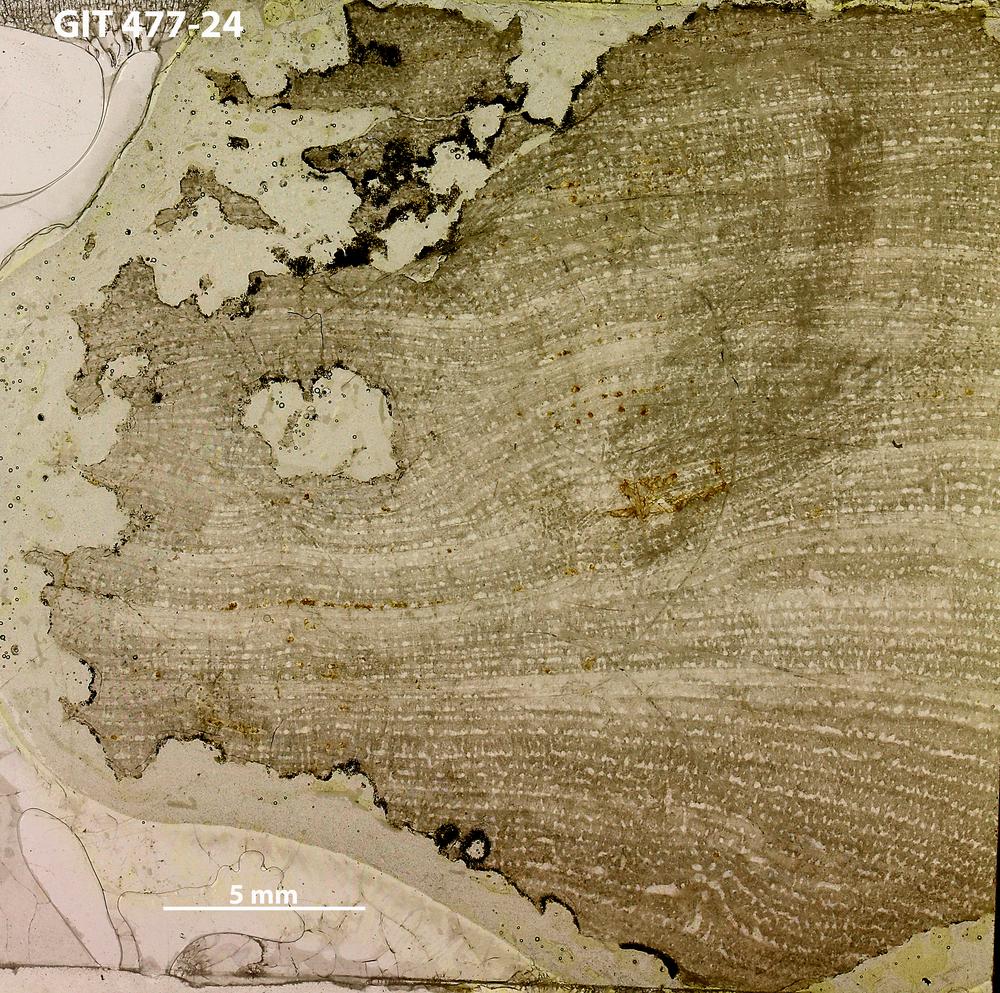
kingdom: Animalia
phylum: Porifera
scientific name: Porifera
